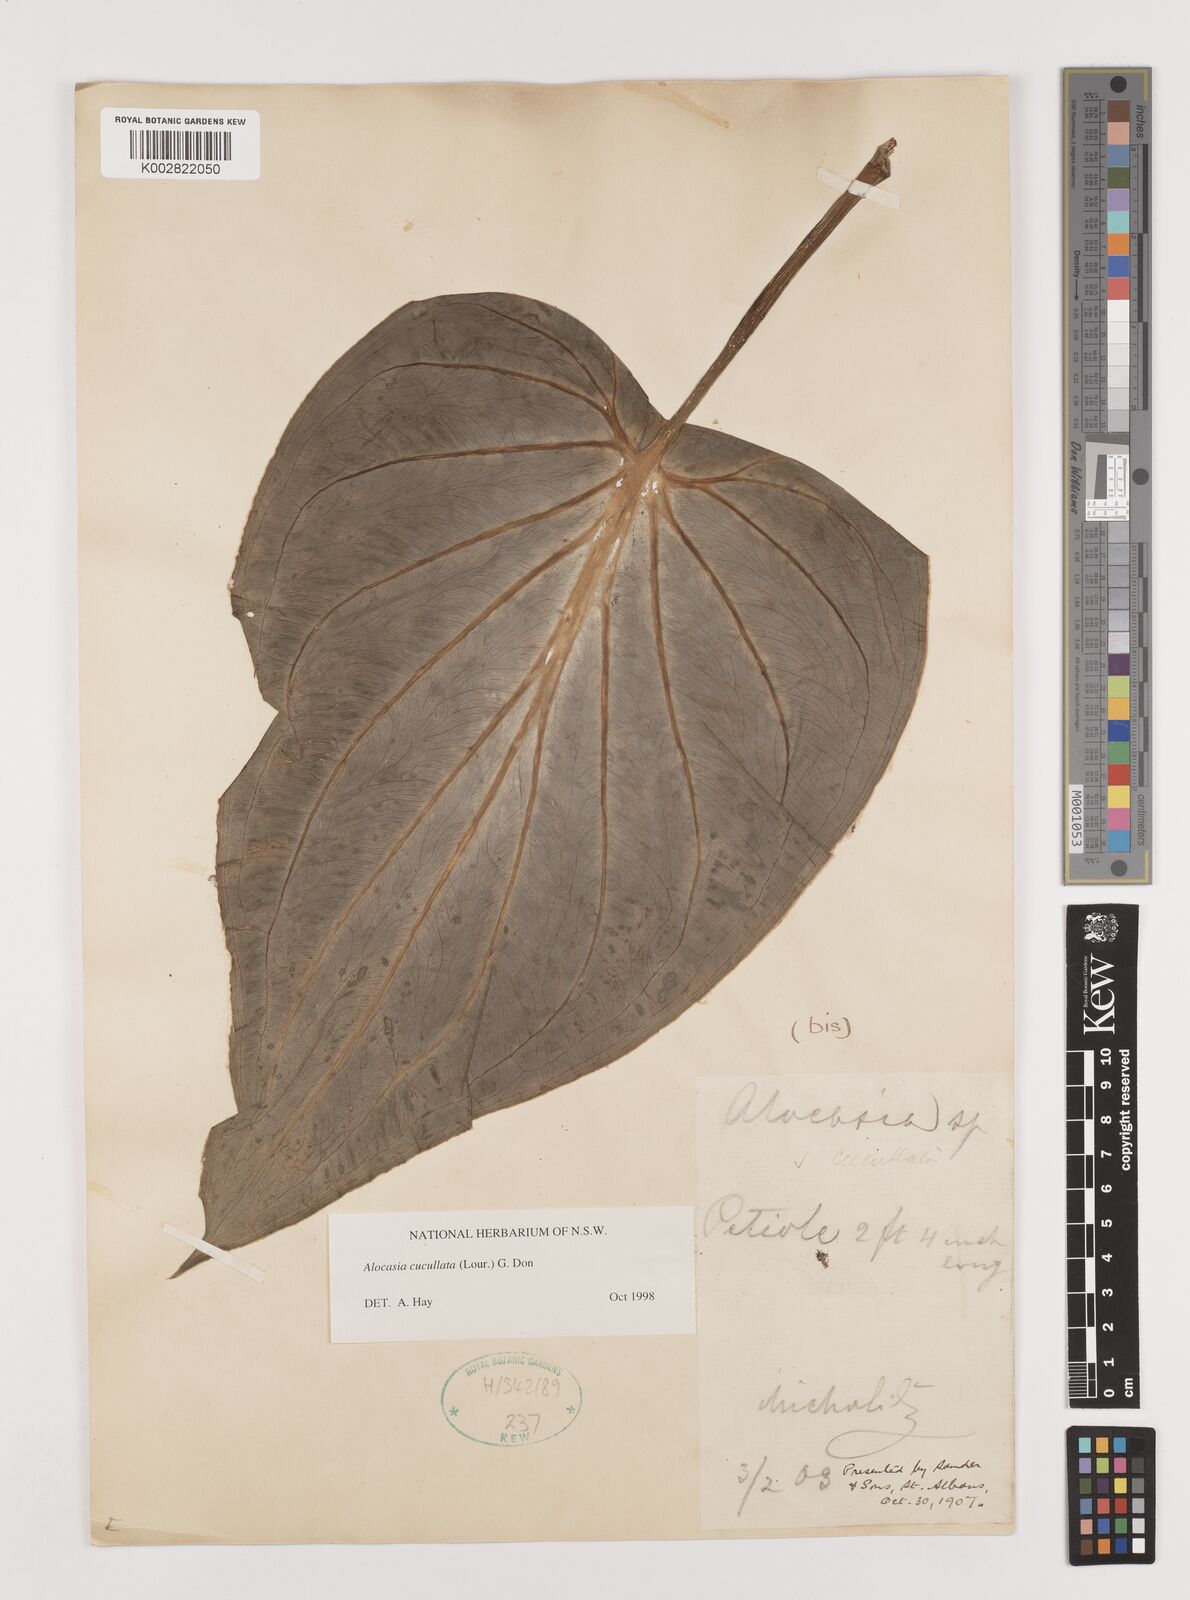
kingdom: Plantae
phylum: Tracheophyta
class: Liliopsida
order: Alismatales
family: Araceae
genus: Alocasia
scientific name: Alocasia cucullata
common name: Buddha's hand
